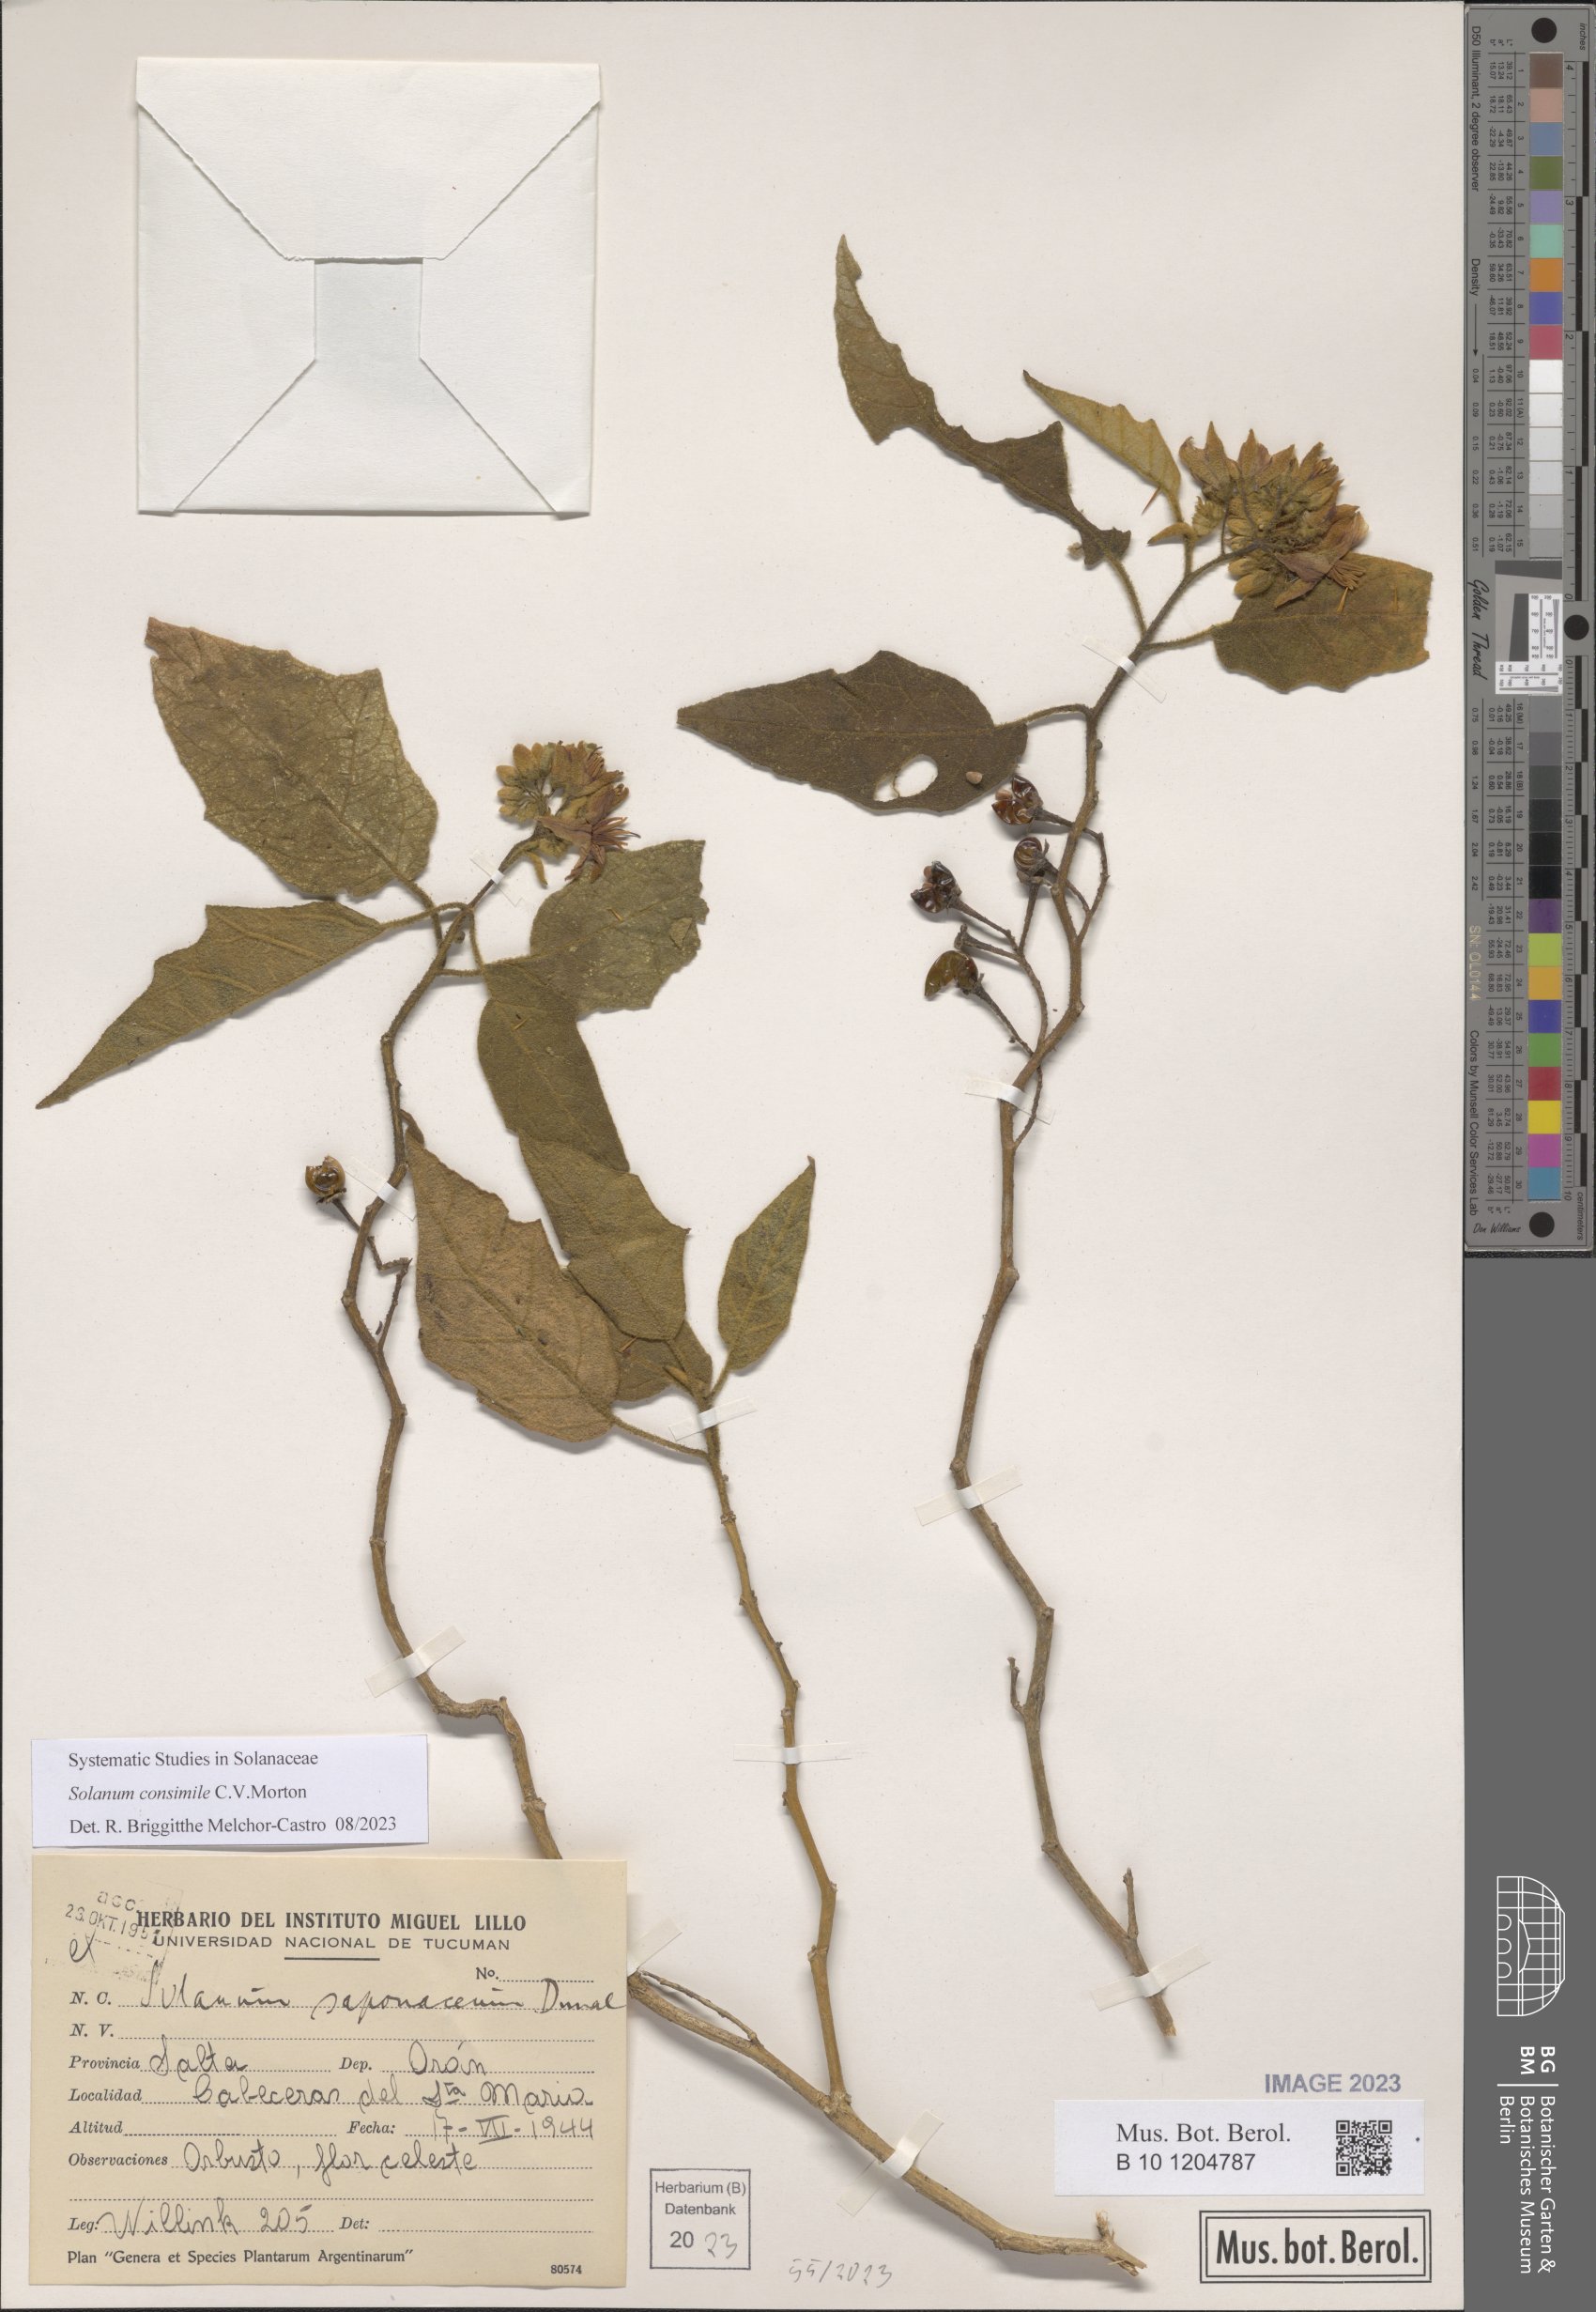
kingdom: Plantae
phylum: Tracheophyta
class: Magnoliopsida
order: Solanales
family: Solanaceae
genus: Solanum
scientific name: Solanum consimile
